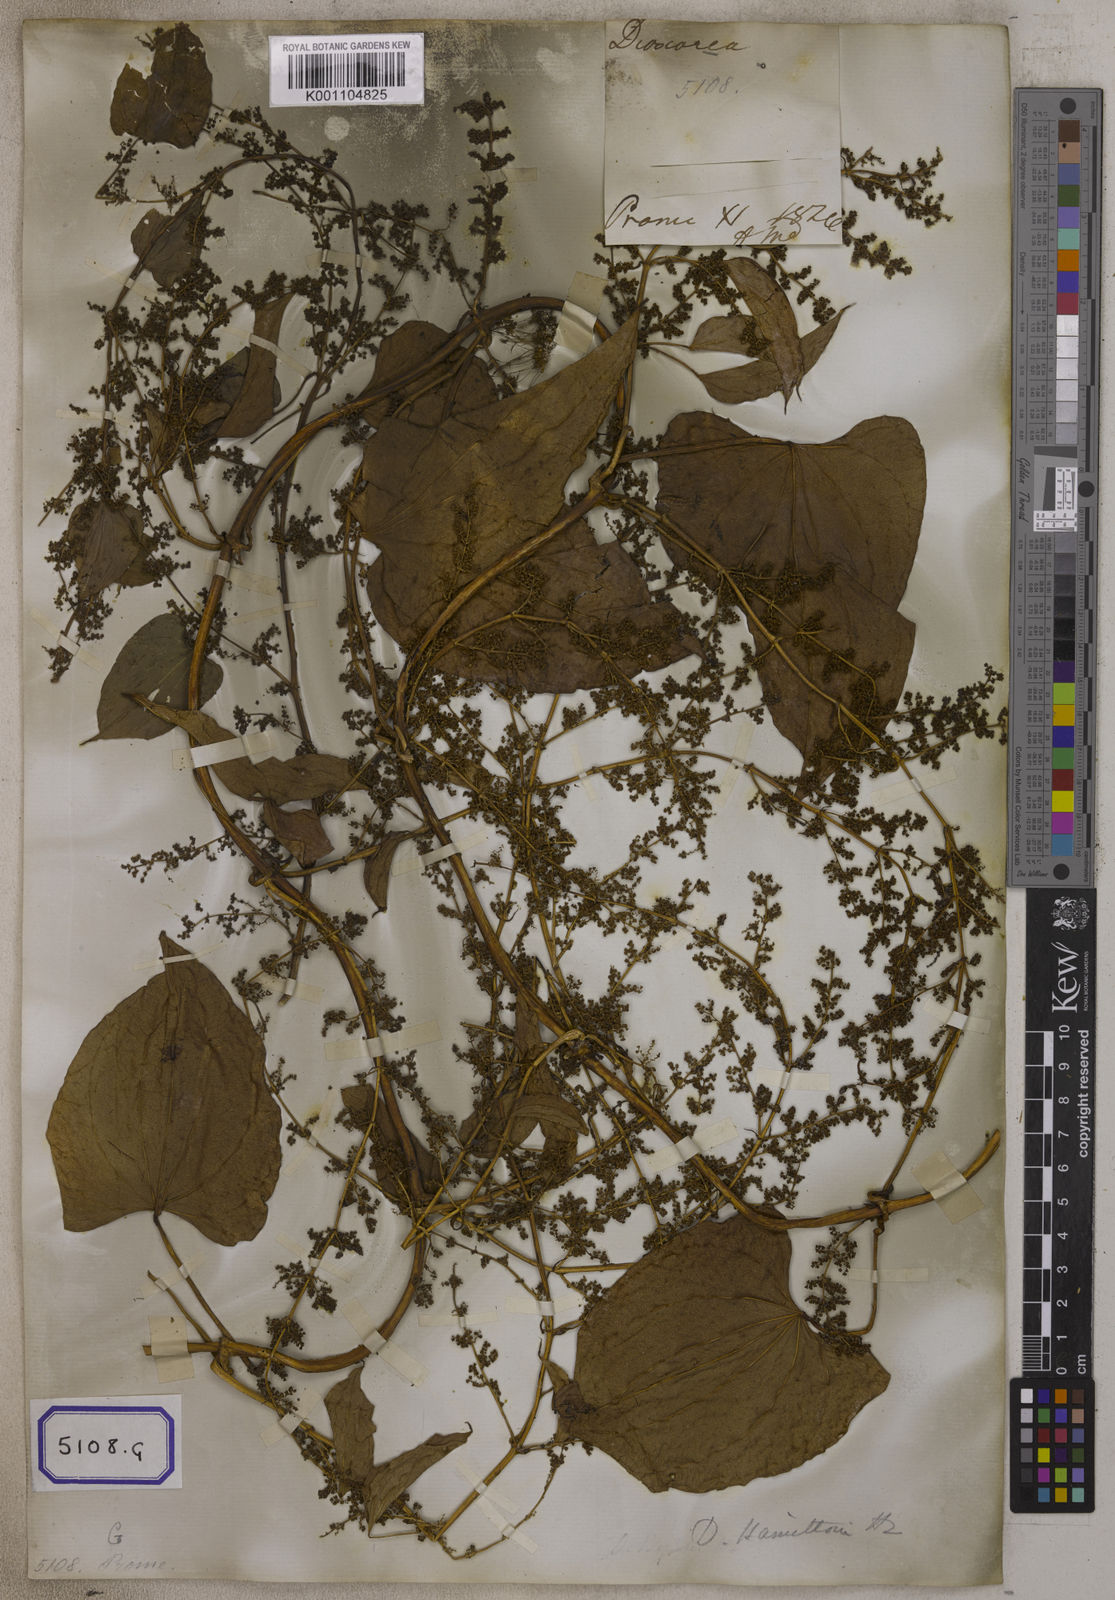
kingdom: Plantae
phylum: Tracheophyta
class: Liliopsida
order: Dioscoreales
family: Dioscoreaceae
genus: Dioscorea
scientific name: Dioscorea villosa
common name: Wild yam
